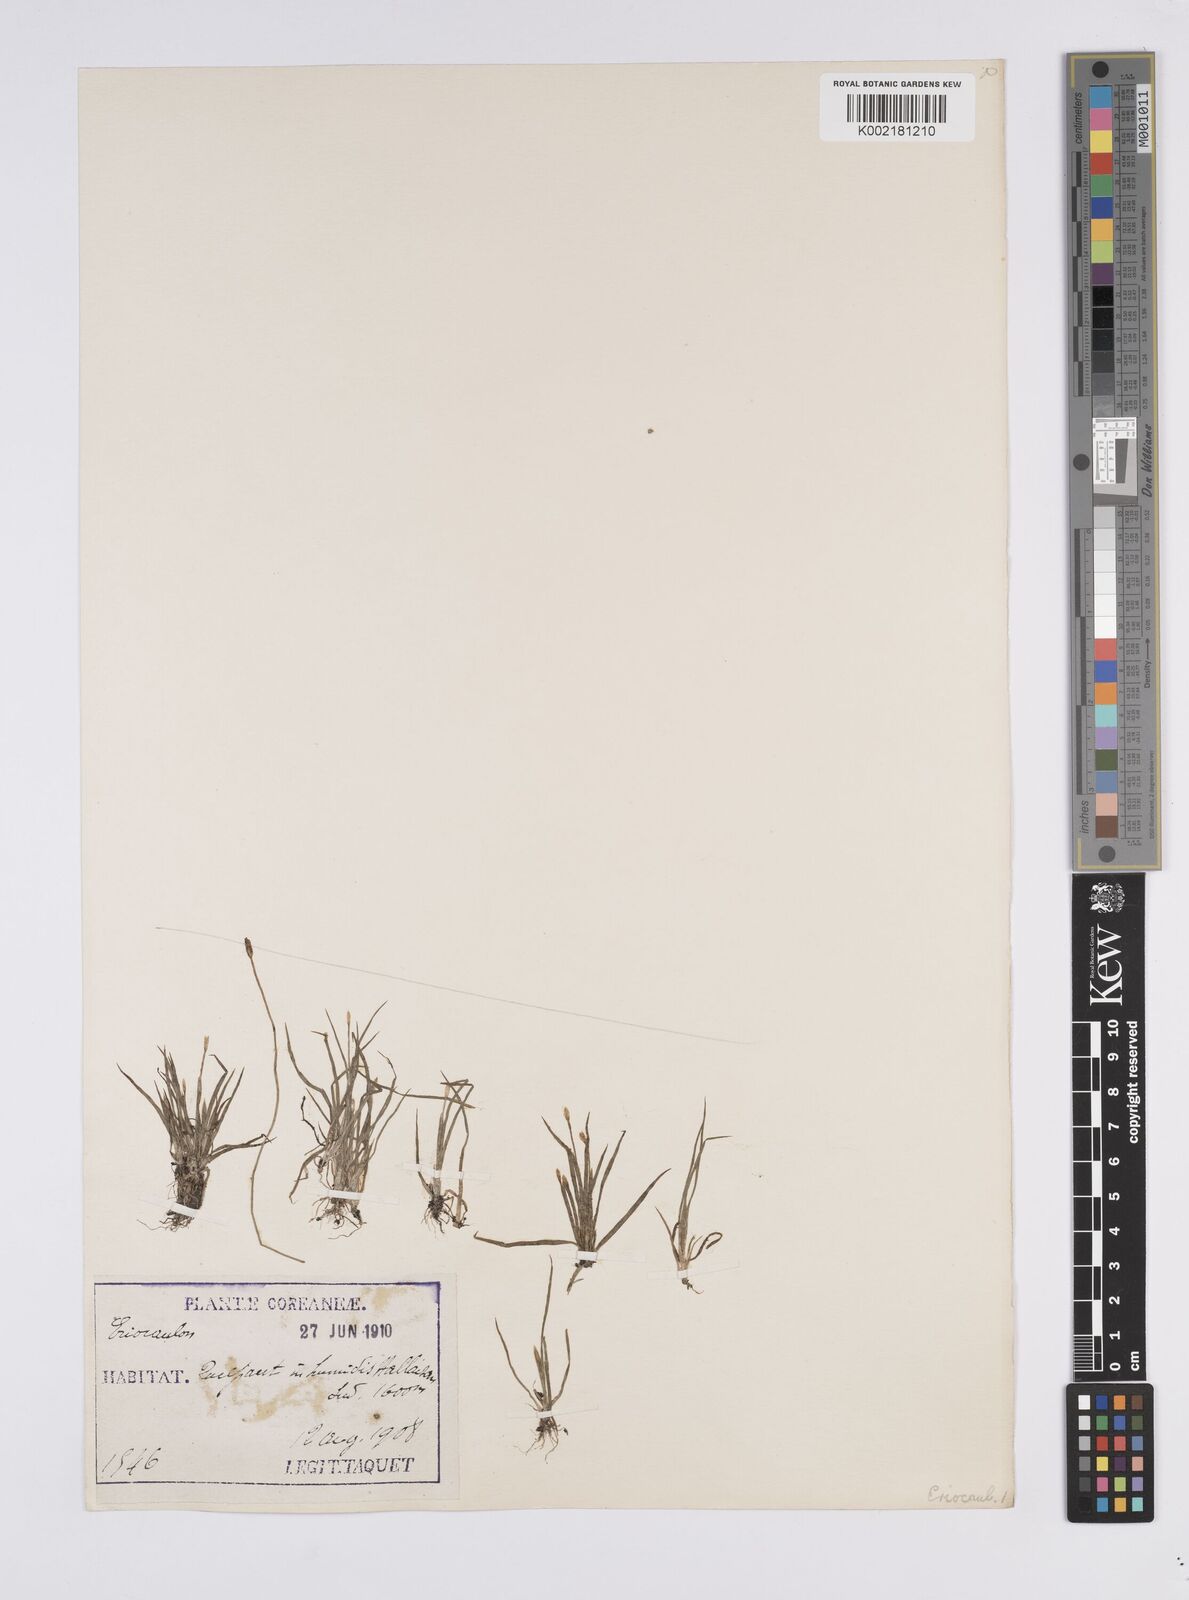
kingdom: Plantae
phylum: Tracheophyta
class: Liliopsida
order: Poales
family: Eriocaulaceae
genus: Eriocaulon
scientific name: Eriocaulon
